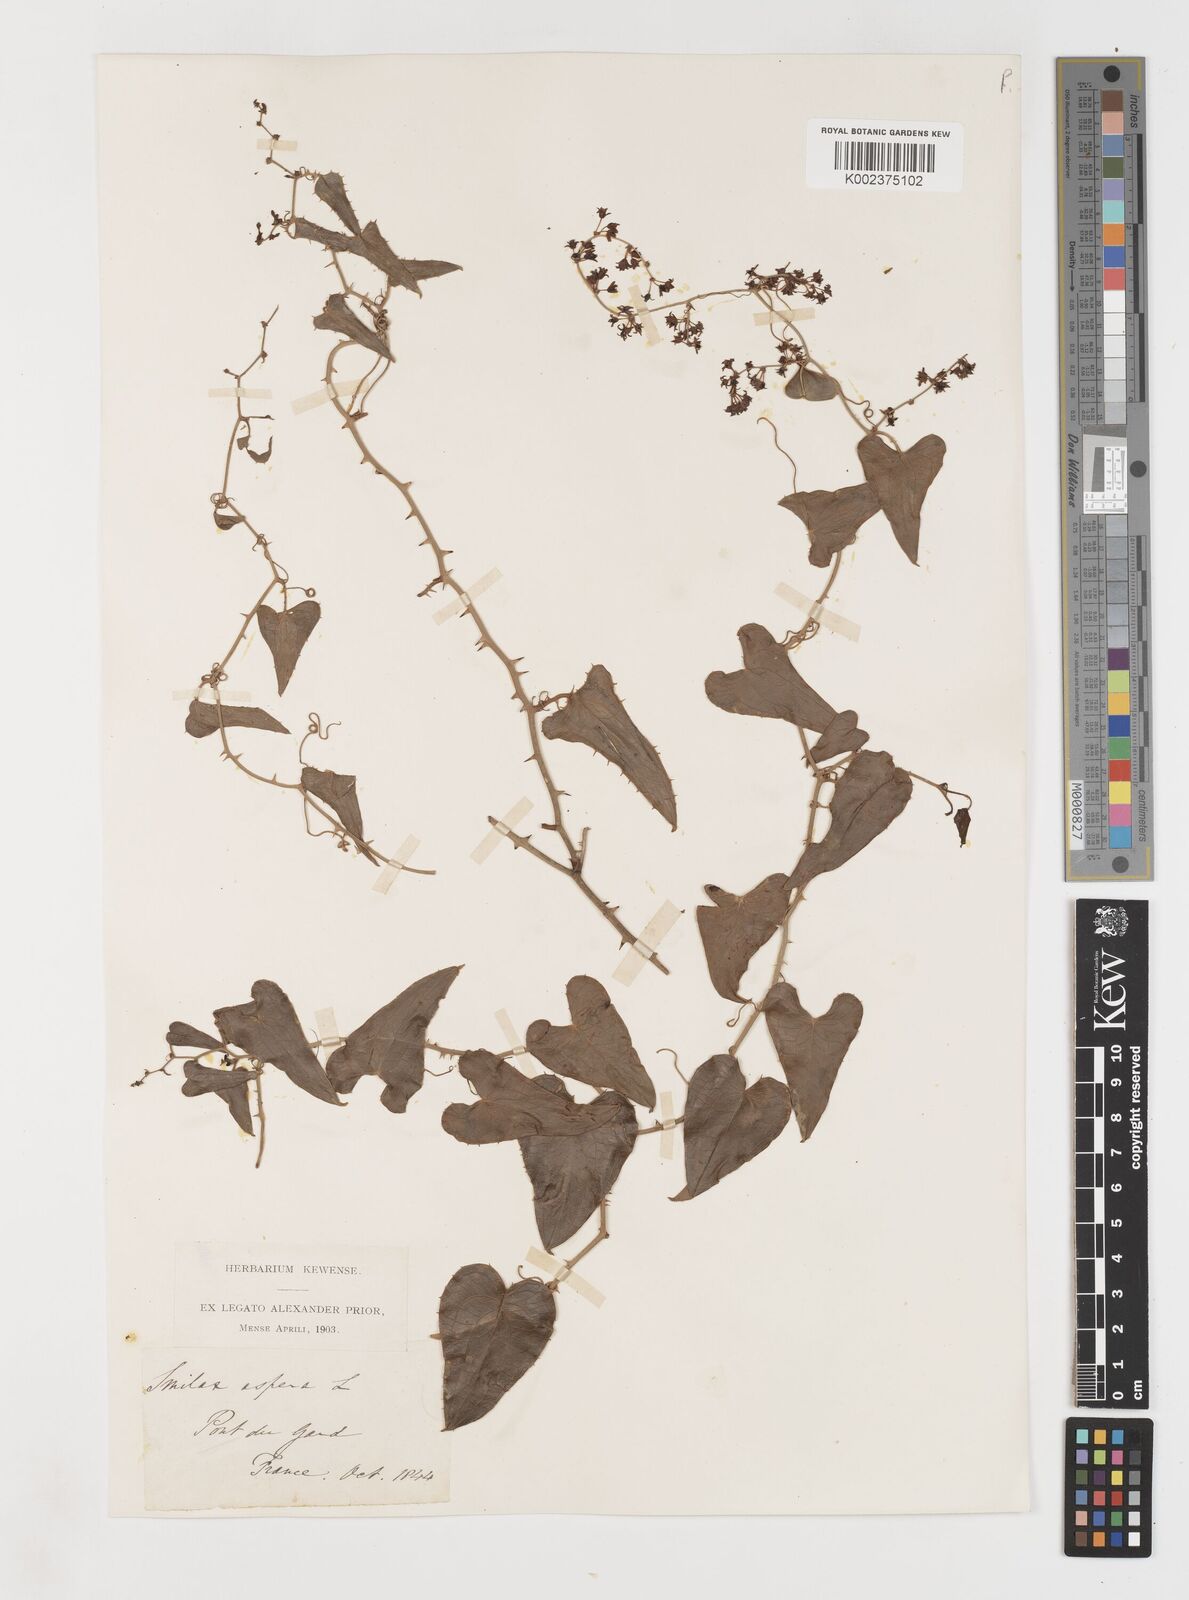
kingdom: Plantae
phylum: Tracheophyta
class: Liliopsida
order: Liliales
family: Smilacaceae
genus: Smilax
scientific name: Smilax aspera
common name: Common smilax
